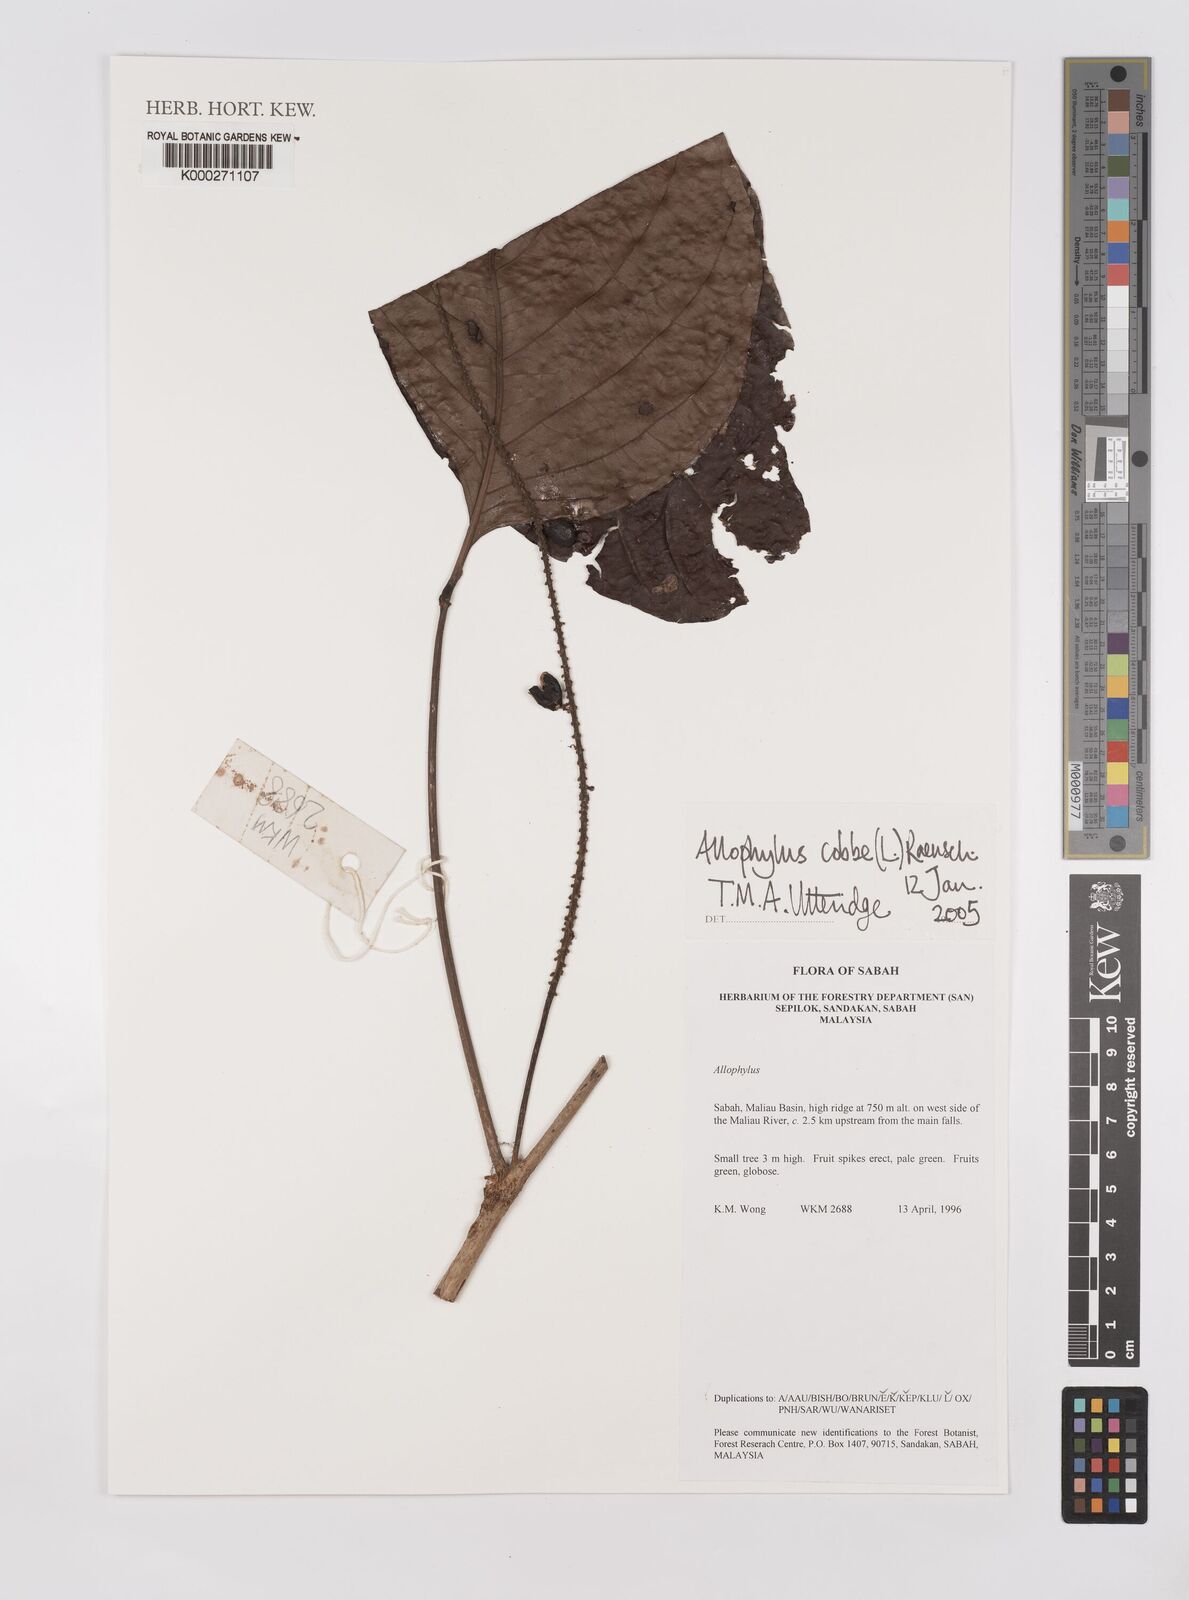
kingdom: Plantae
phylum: Tracheophyta
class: Magnoliopsida
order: Sapindales
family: Sapindaceae
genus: Allophylus
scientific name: Allophylus
